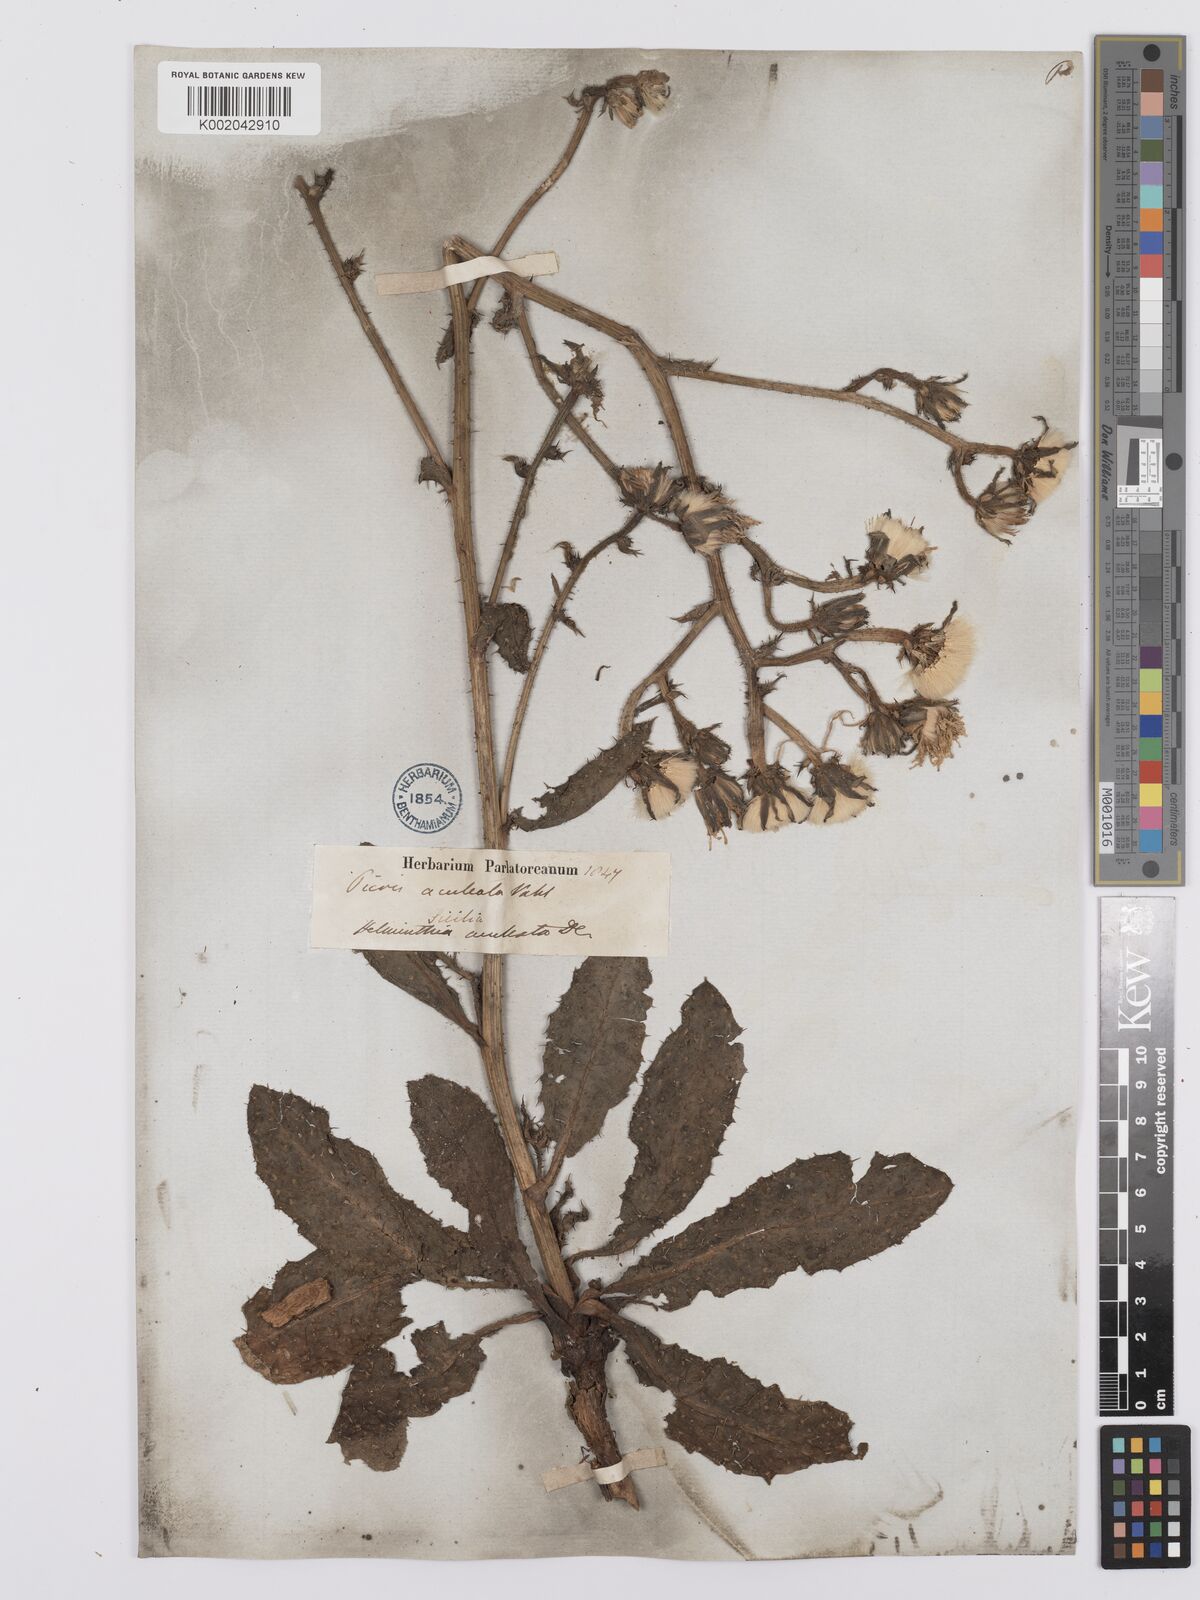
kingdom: Plantae
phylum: Tracheophyta
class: Magnoliopsida
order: Asterales
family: Asteraceae
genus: Helminthotheca
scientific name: Helminthotheca aculeata
